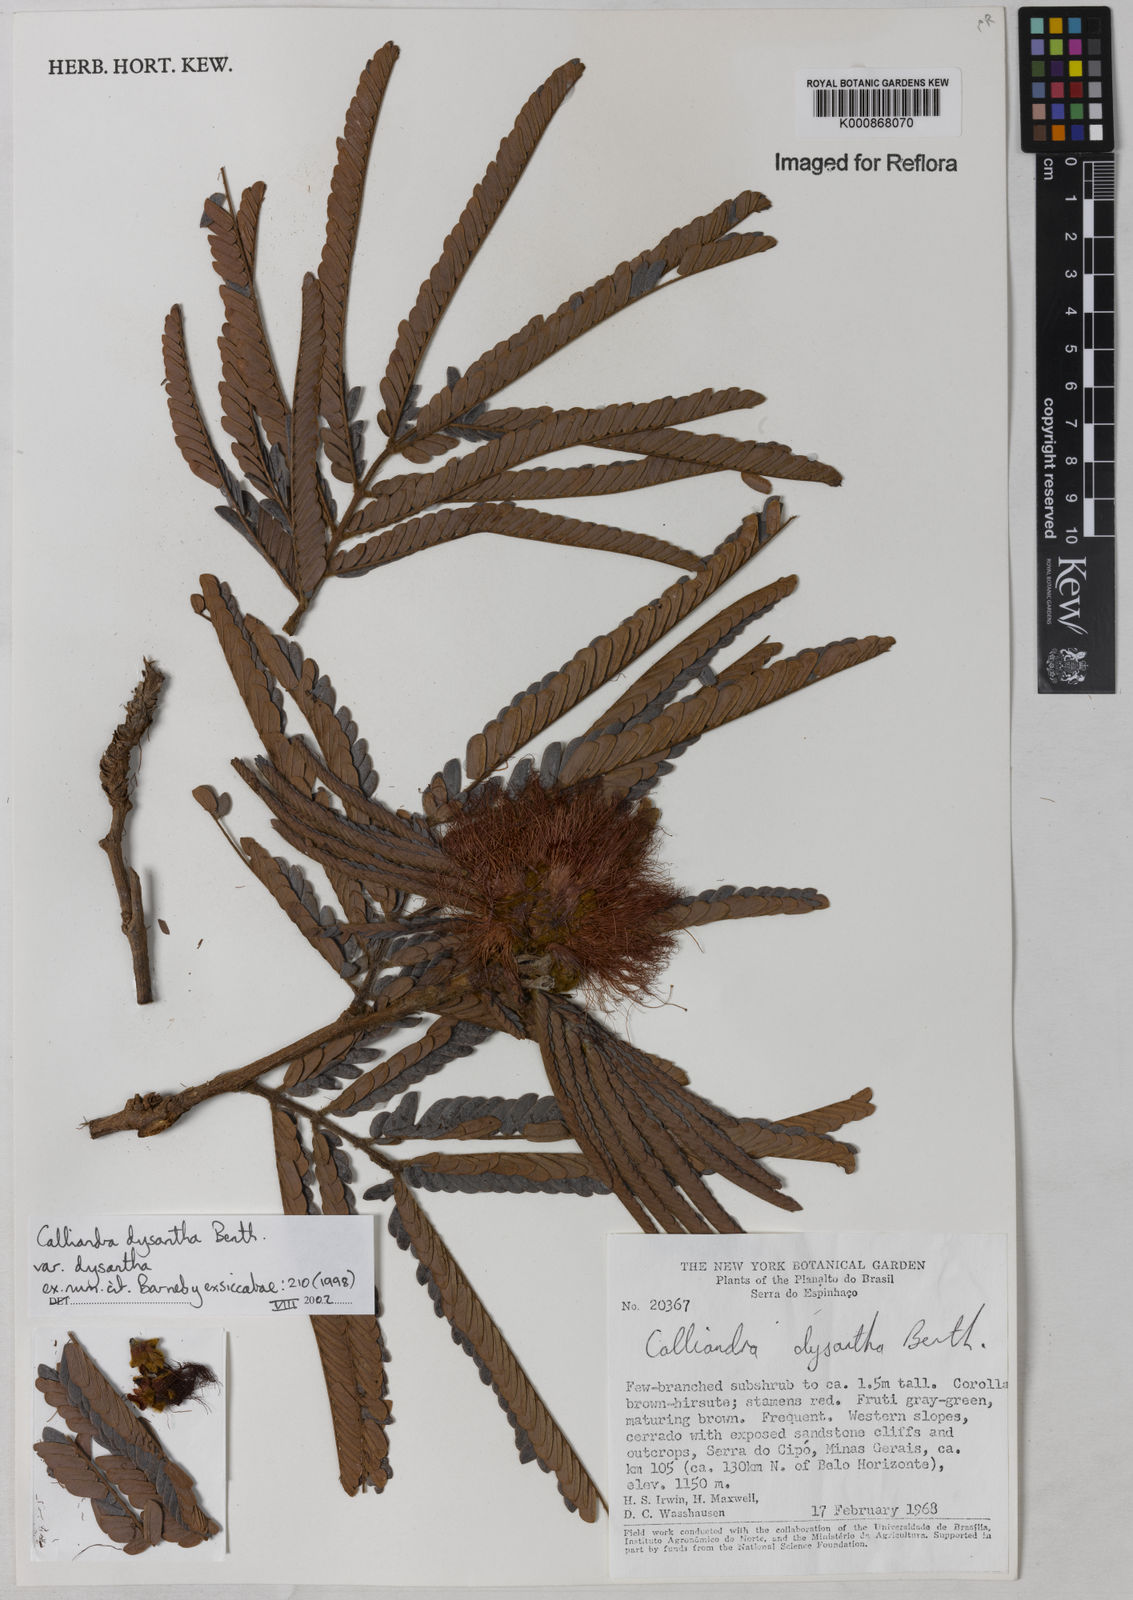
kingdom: Plantae
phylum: Tracheophyta
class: Magnoliopsida
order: Fabales
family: Fabaceae
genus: Calliandra
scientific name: Calliandra dysantha
